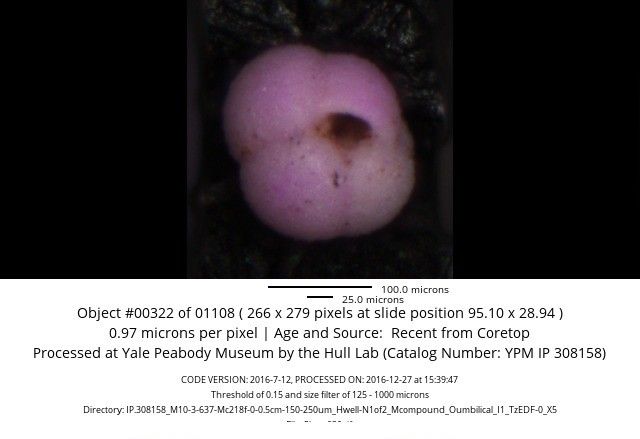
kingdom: Chromista
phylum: Foraminifera
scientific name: Foraminifera
